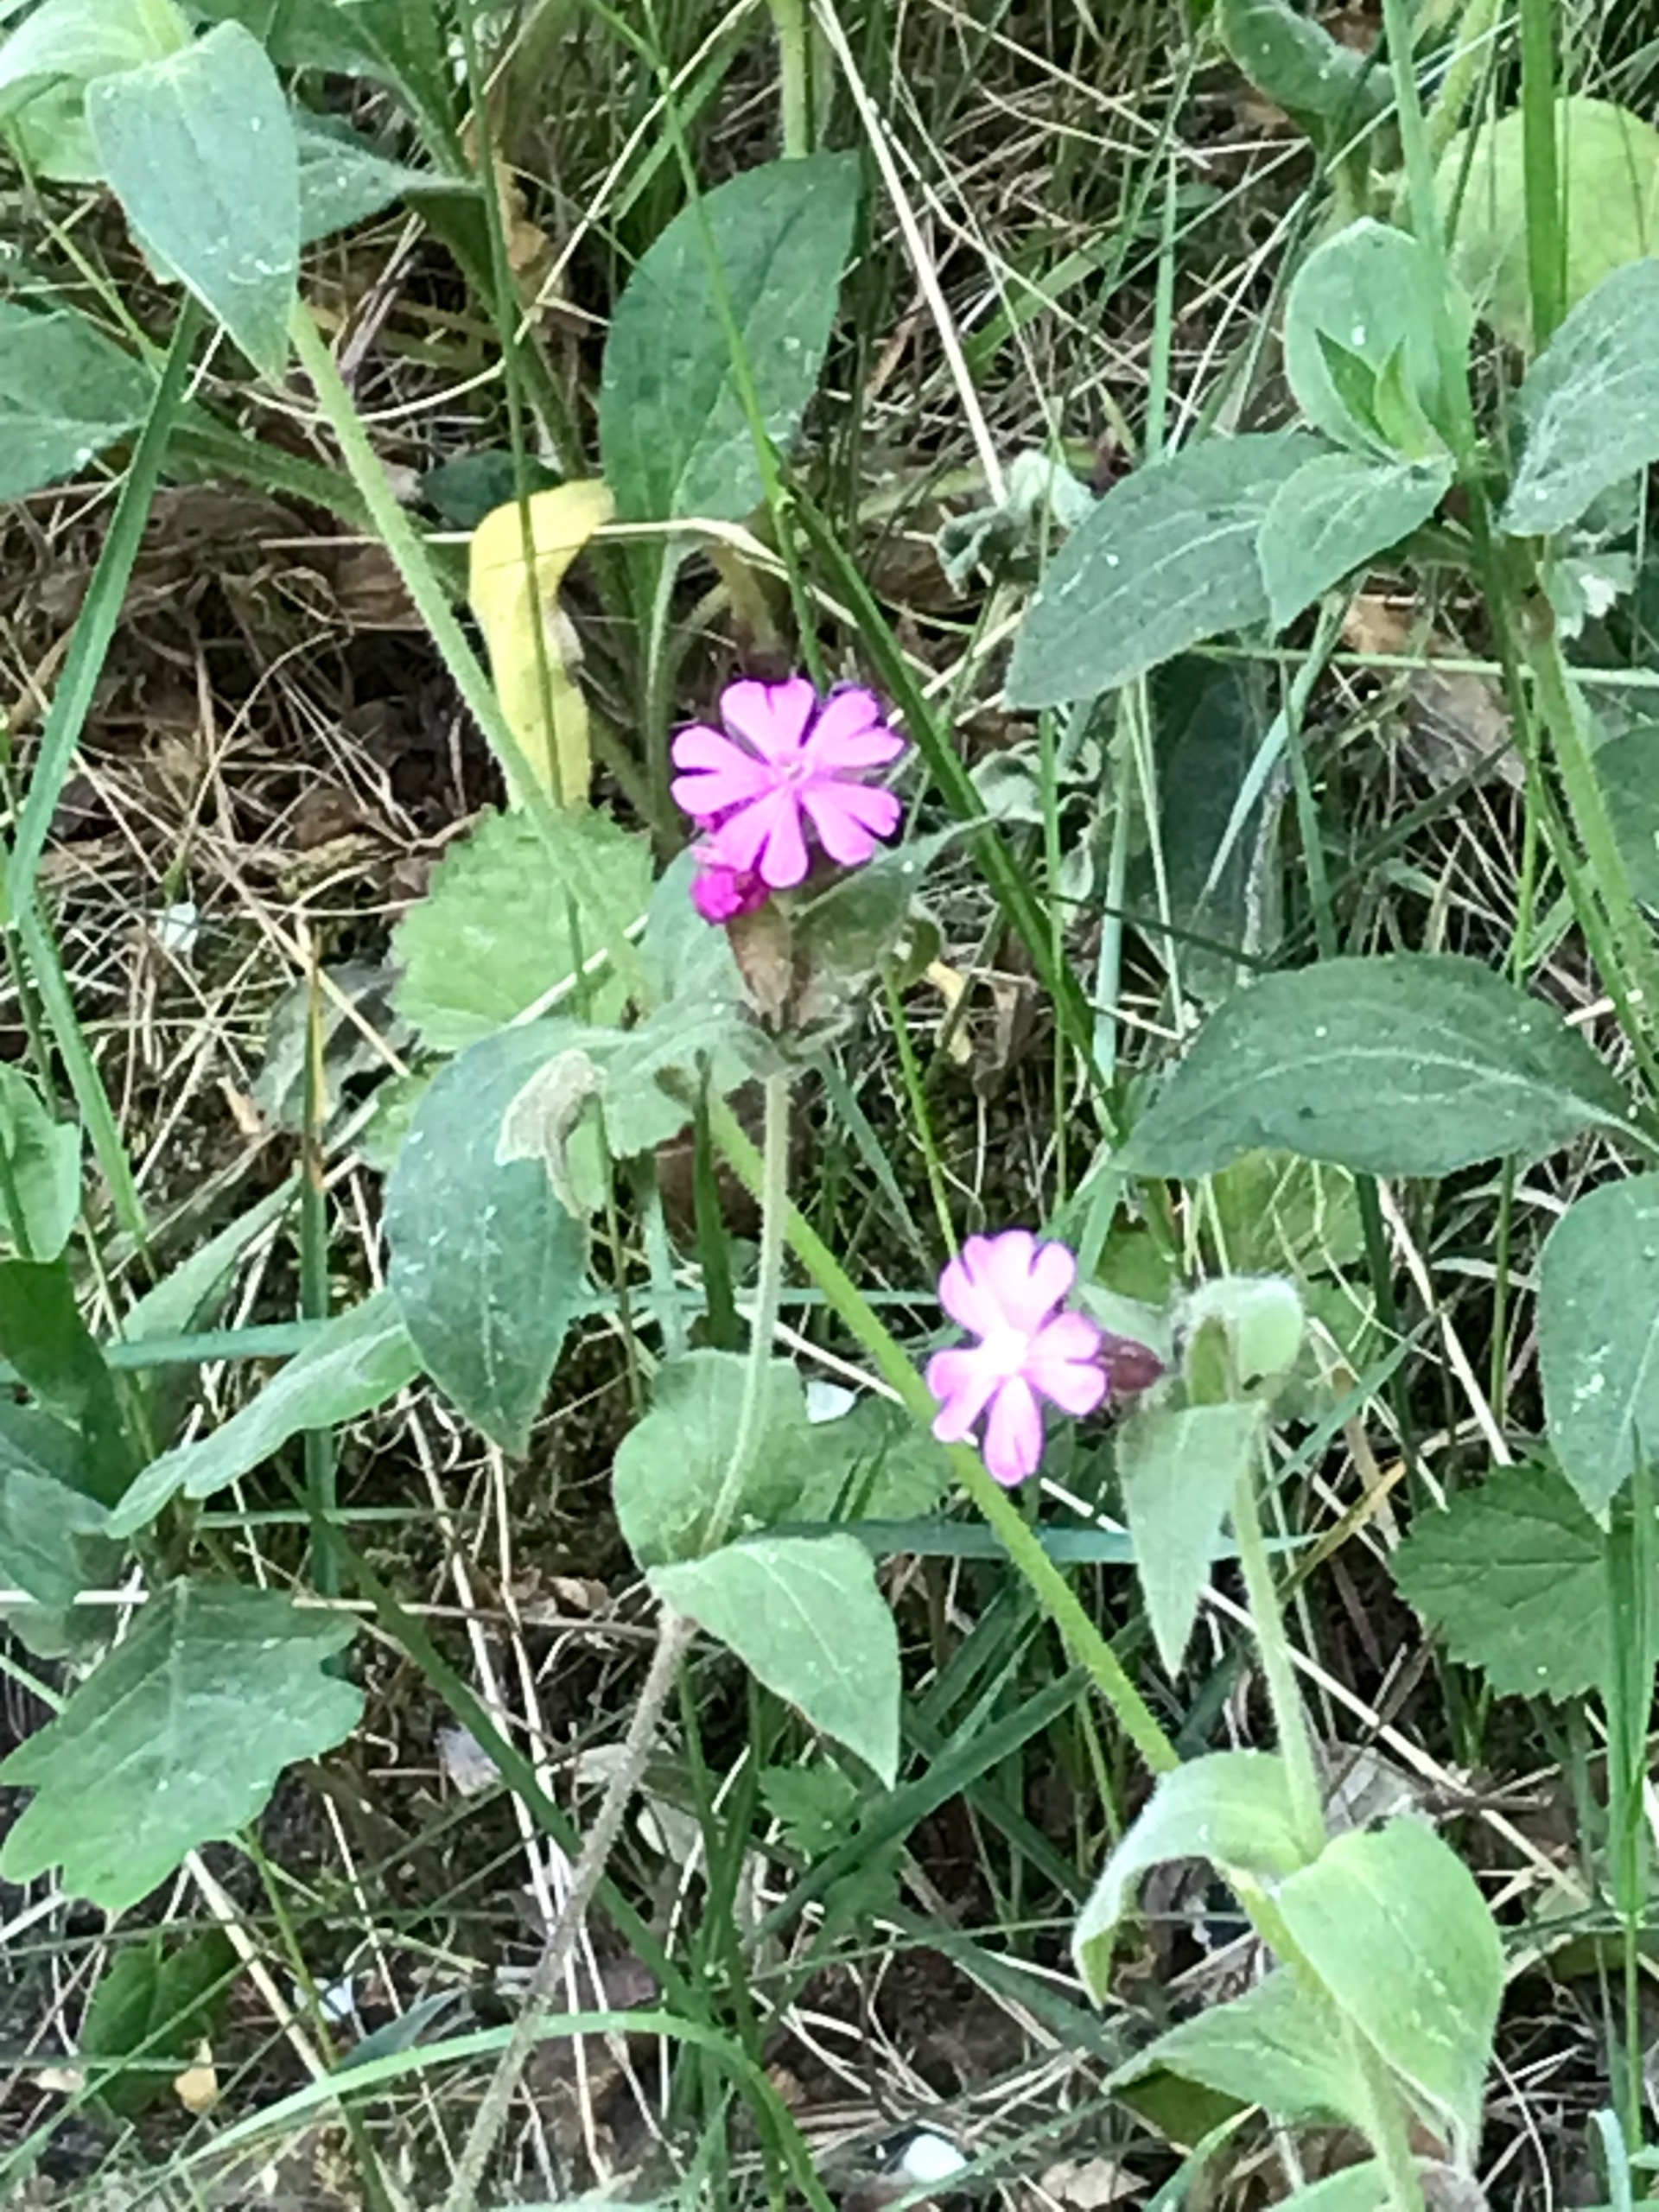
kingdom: Plantae
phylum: Tracheophyta
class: Magnoliopsida
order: Caryophyllales
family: Caryophyllaceae
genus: Silene
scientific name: Silene dioica
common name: Dagpragtstjerne
